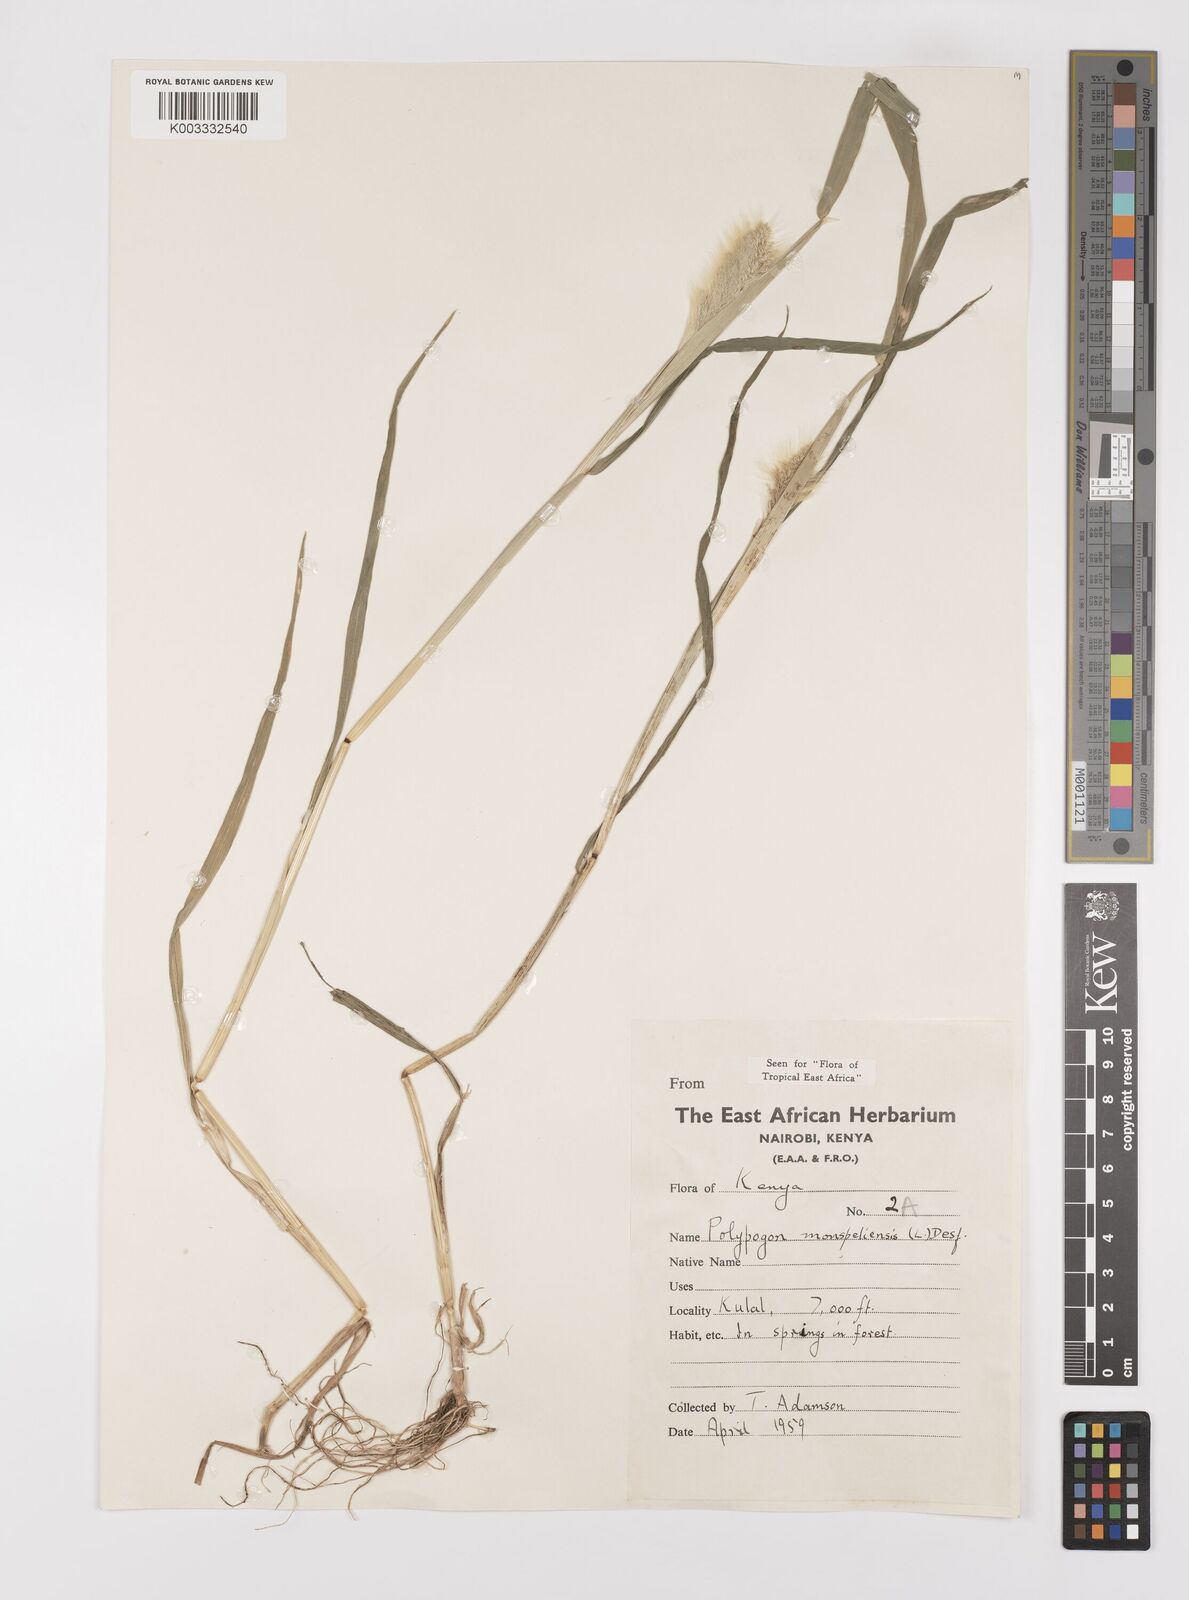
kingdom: Plantae
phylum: Tracheophyta
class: Liliopsida
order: Poales
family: Poaceae
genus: Polypogon
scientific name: Polypogon monspeliensis
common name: Annual rabbitsfoot grass
